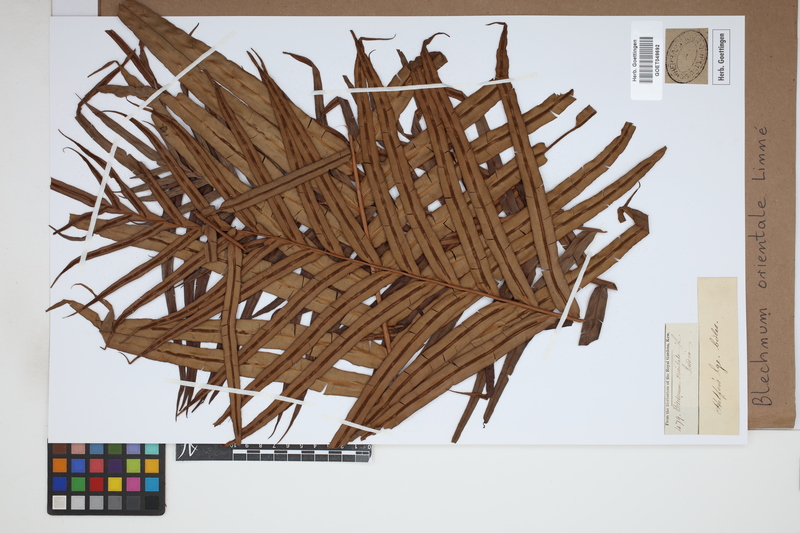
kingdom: Plantae
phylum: Tracheophyta
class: Polypodiopsida
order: Polypodiales
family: Blechnaceae
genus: Blechnopsis
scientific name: Blechnopsis orientalis
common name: Oriental blechnum
